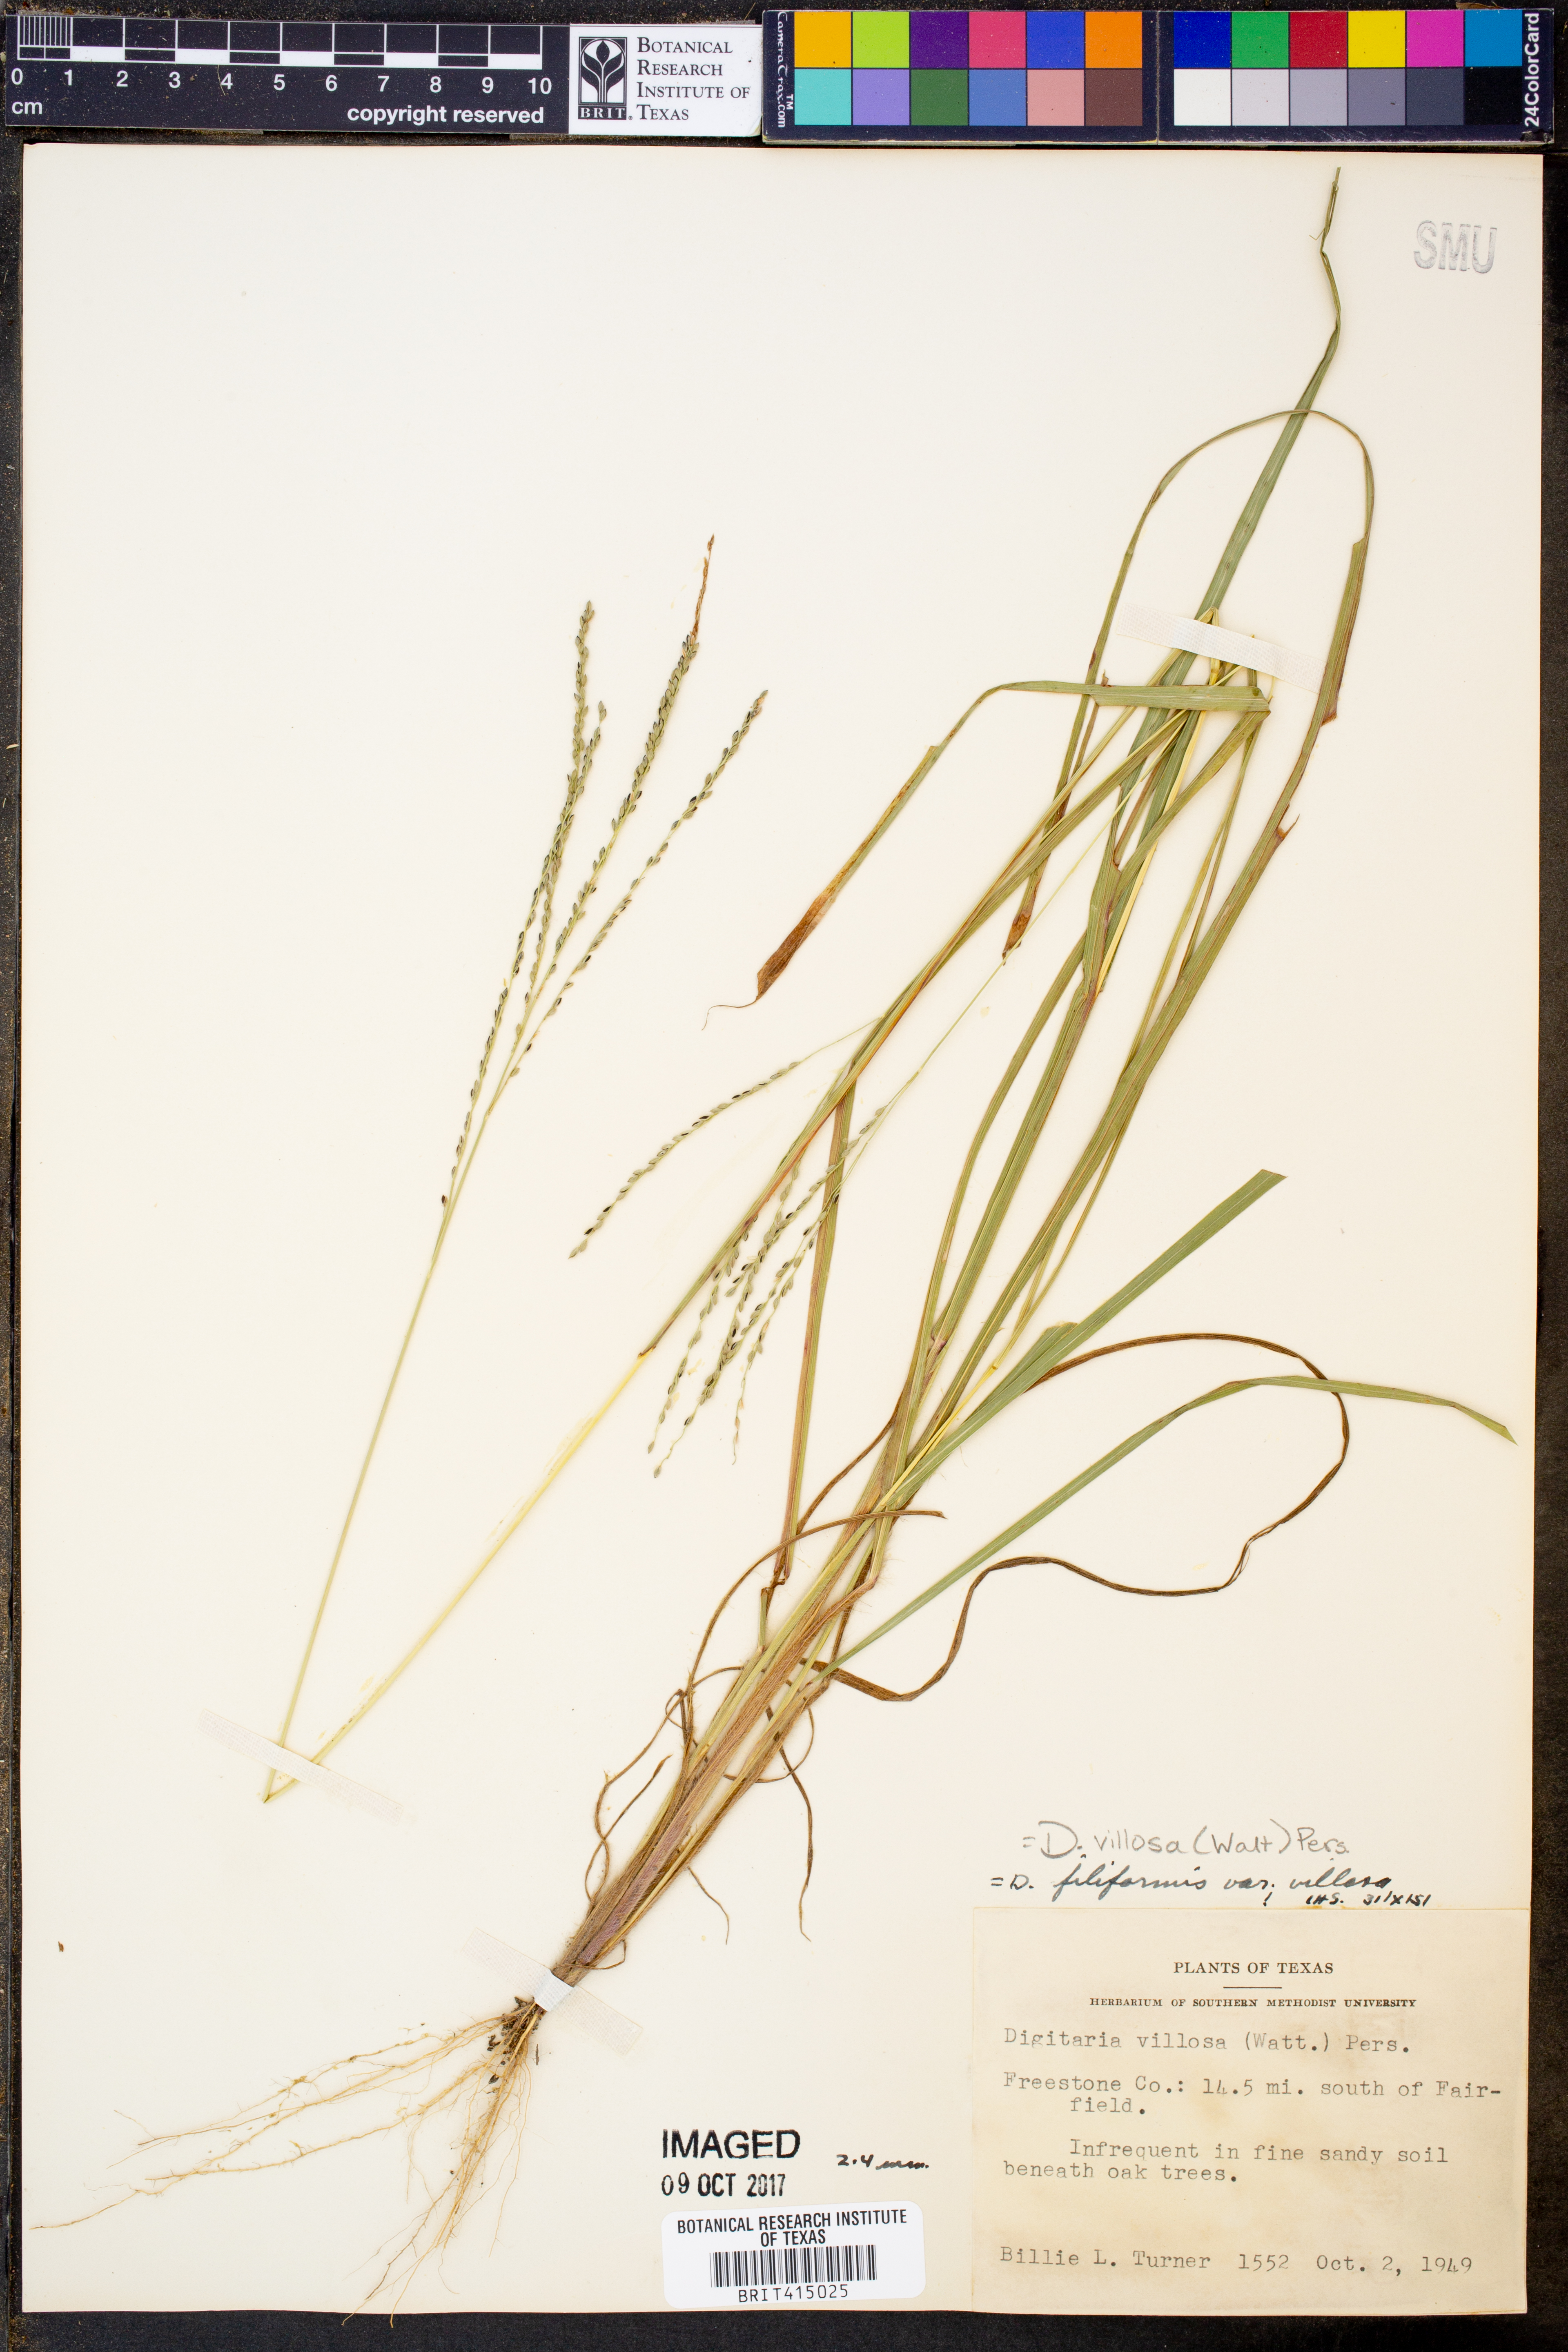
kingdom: Plantae
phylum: Tracheophyta
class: Liliopsida
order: Poales
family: Poaceae
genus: Digitaria
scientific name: Digitaria villosa
